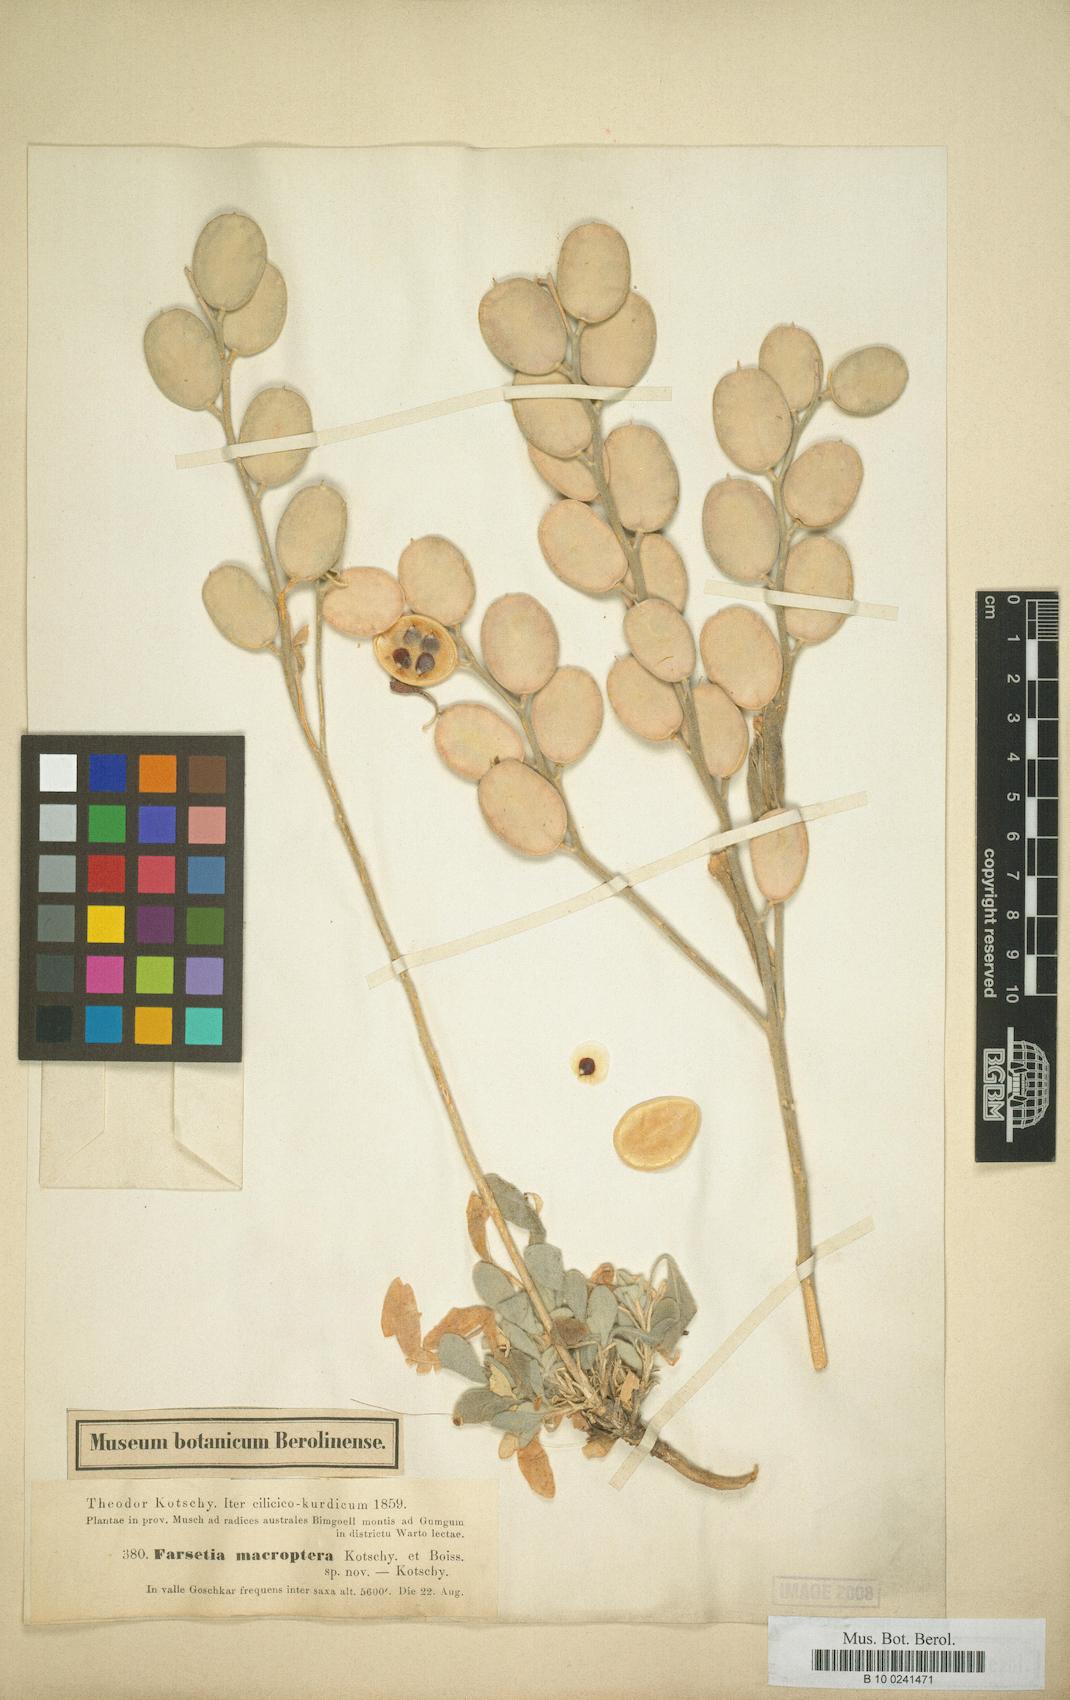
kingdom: Plantae
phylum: Tracheophyta
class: Magnoliopsida
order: Brassicales
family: Brassicaceae
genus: Fibigia
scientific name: Fibigia macrocarpa
